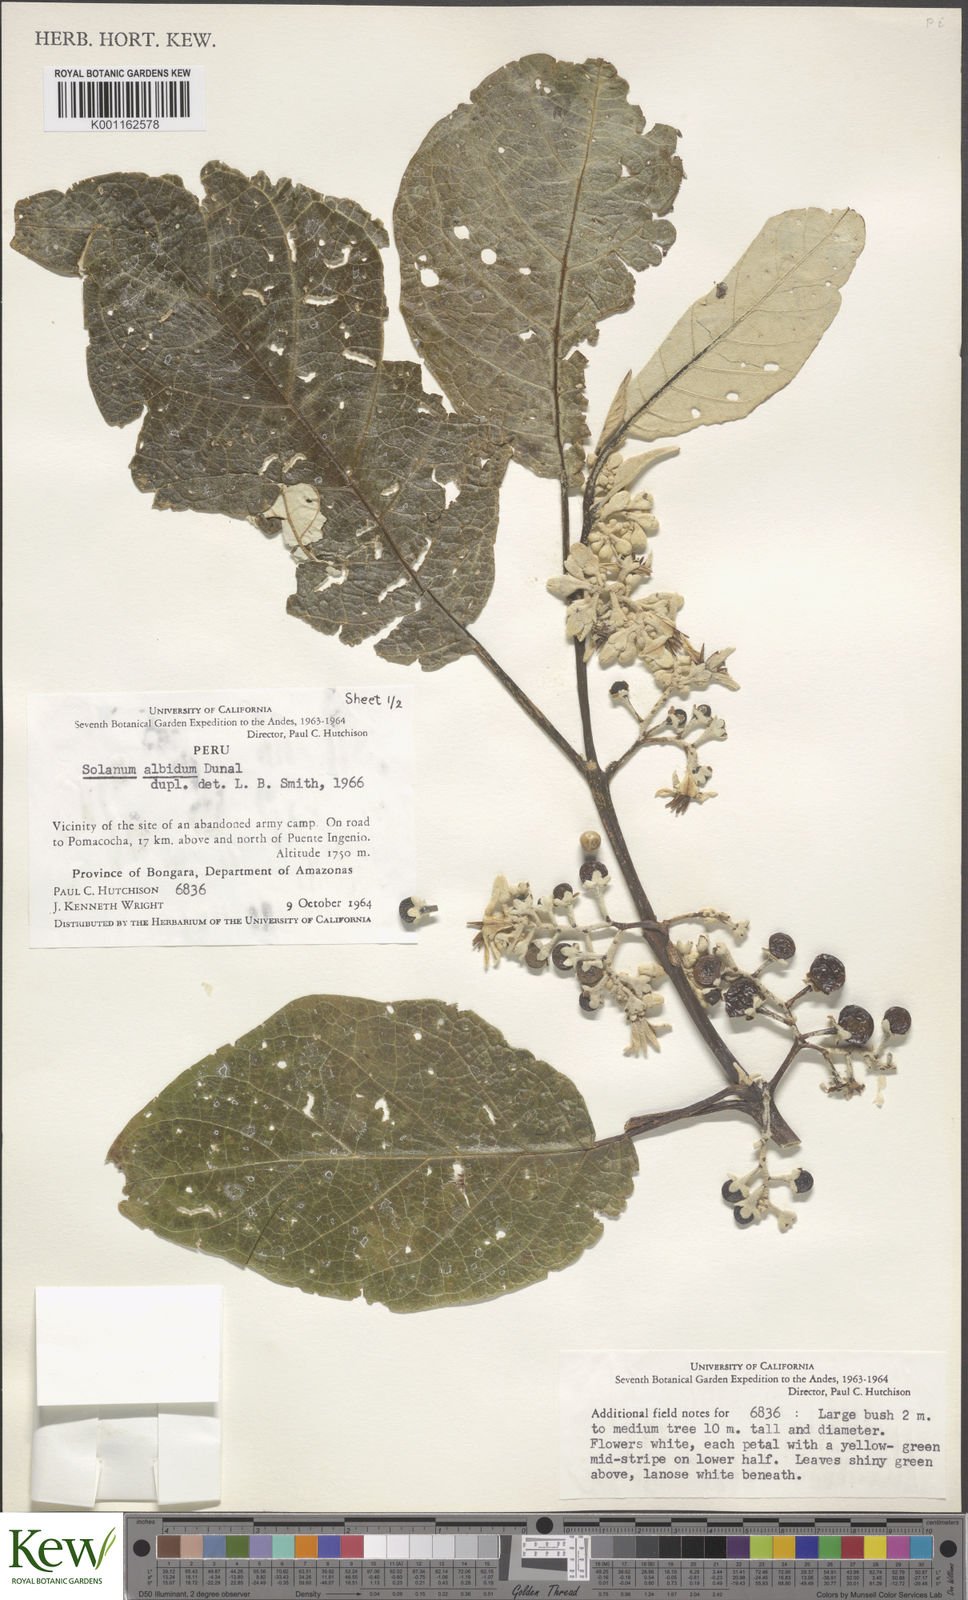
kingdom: Plantae
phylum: Tracheophyta
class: Magnoliopsida
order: Solanales
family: Solanaceae
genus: Solanum
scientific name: Solanum albidum
